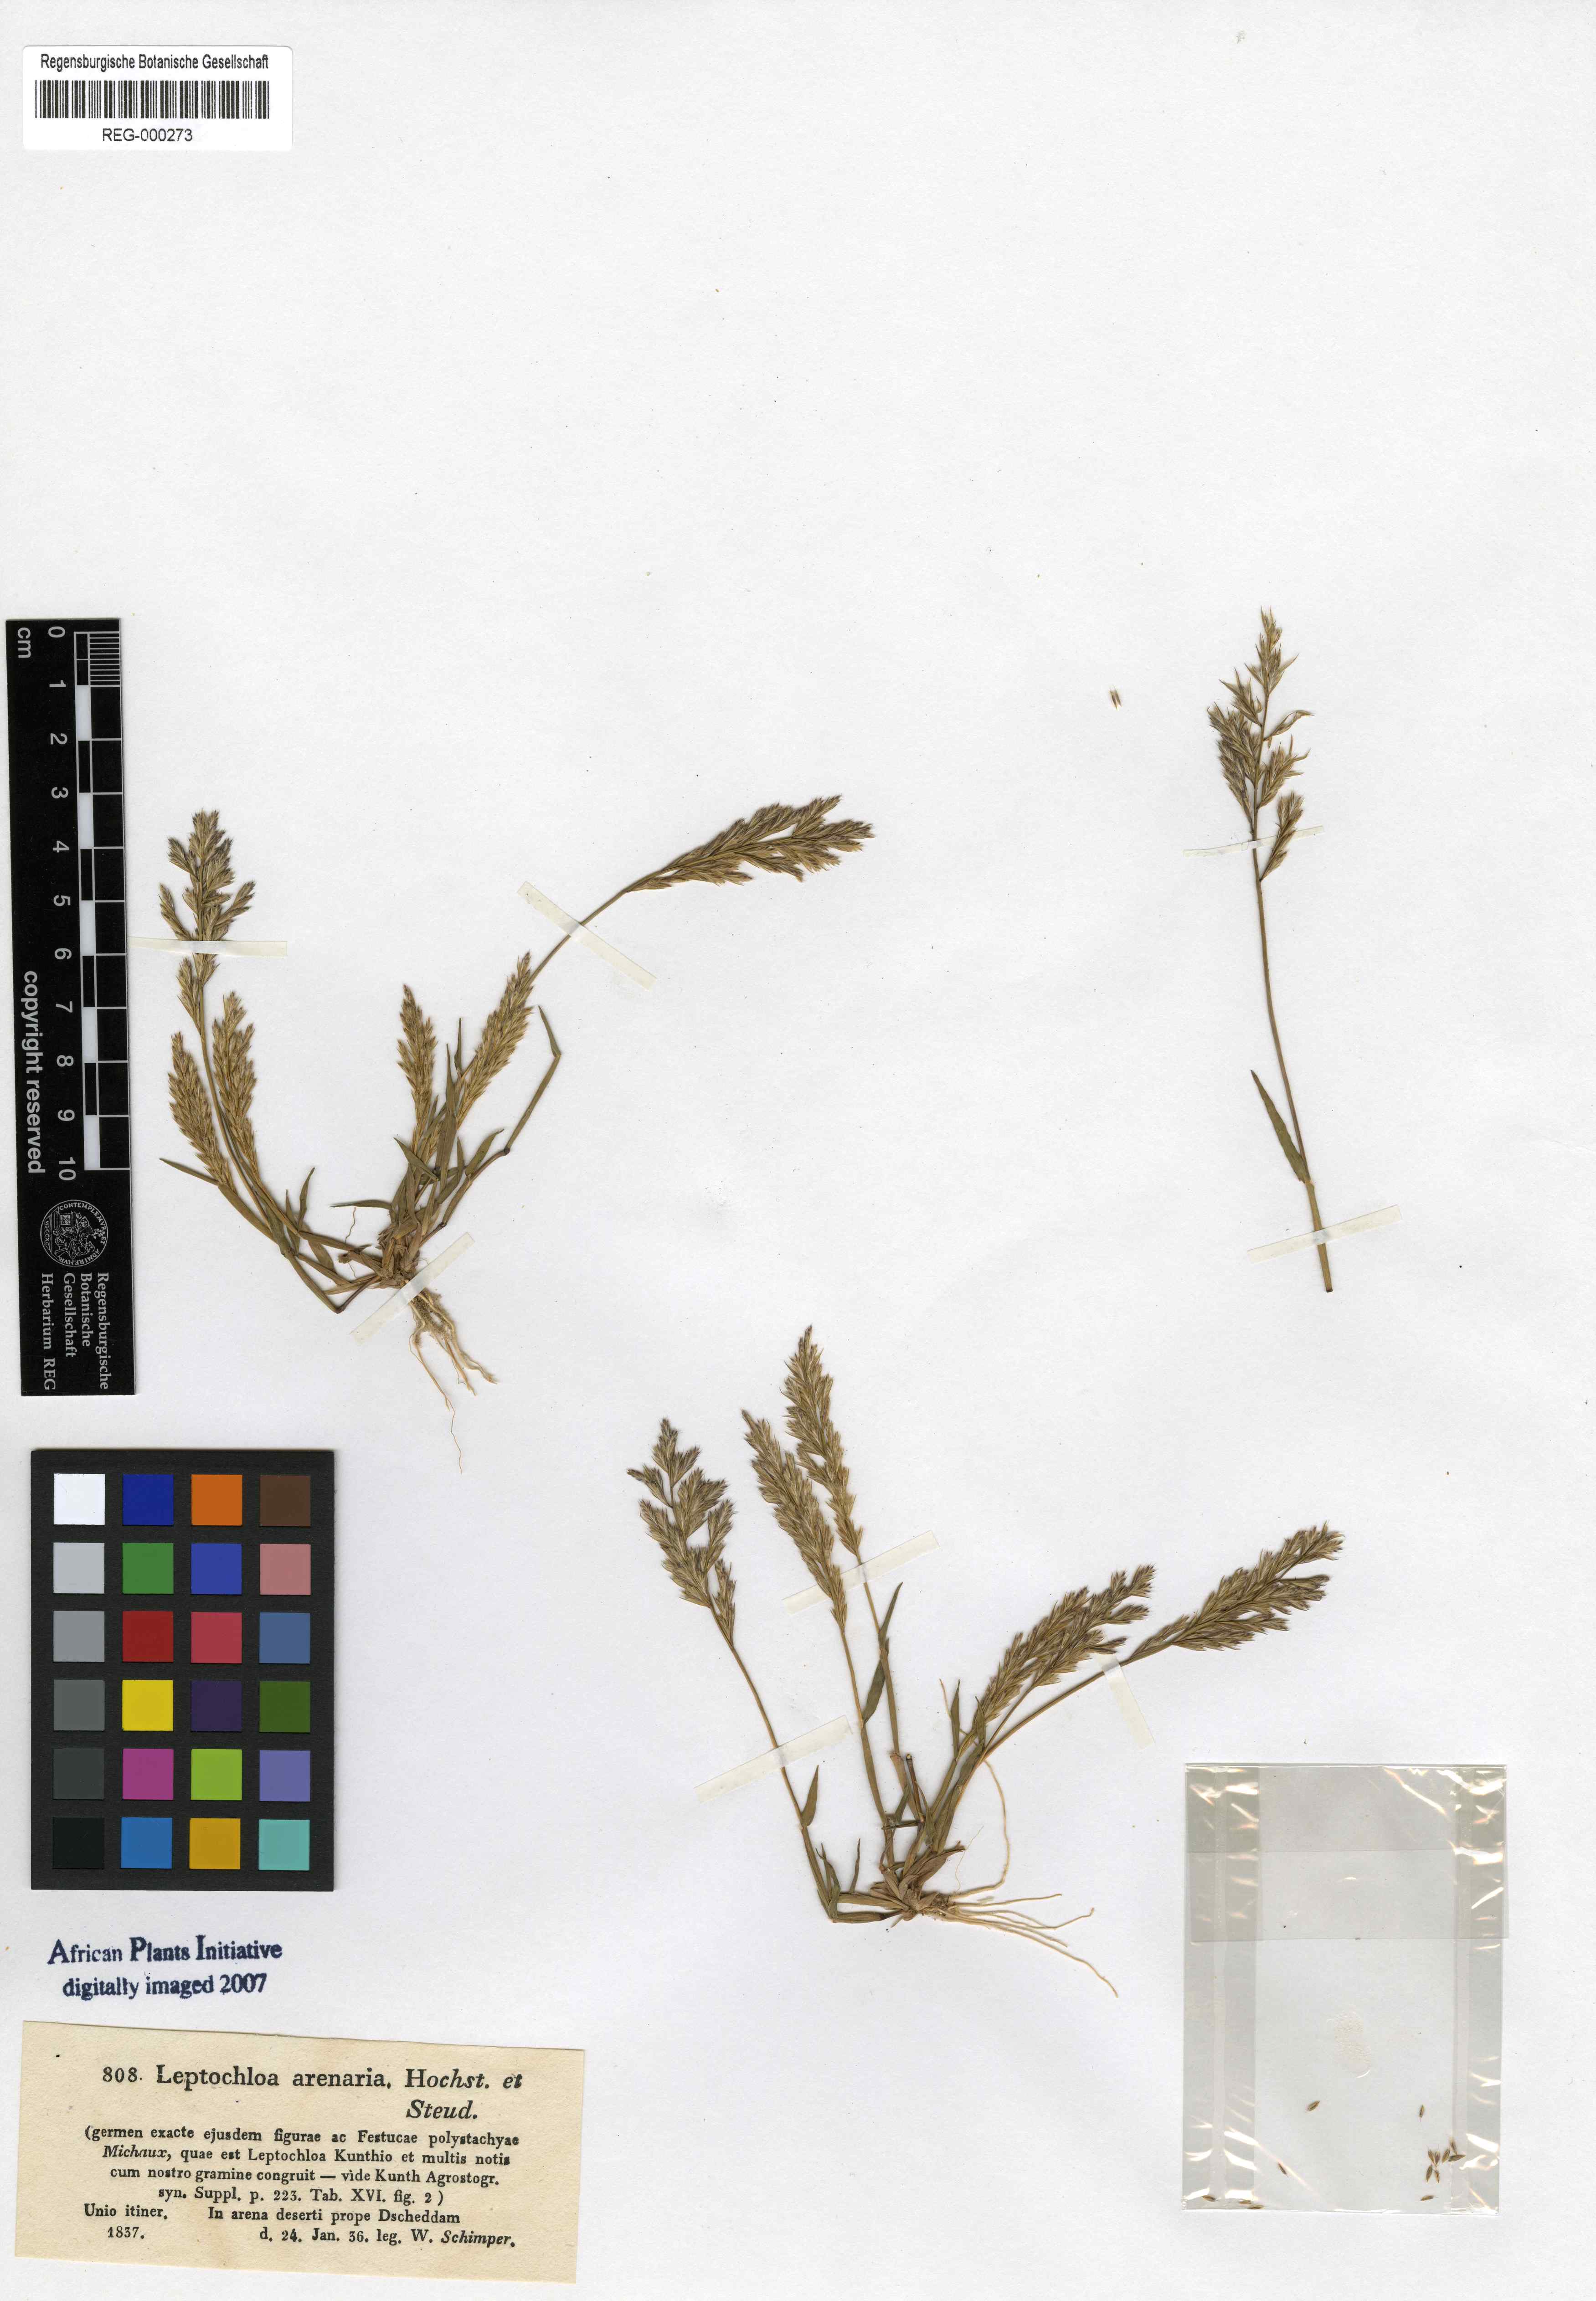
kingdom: Plantae
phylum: Tracheophyta
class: Liliopsida
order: Poales
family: Poaceae
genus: Trichoneura
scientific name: Trichoneura mollis
